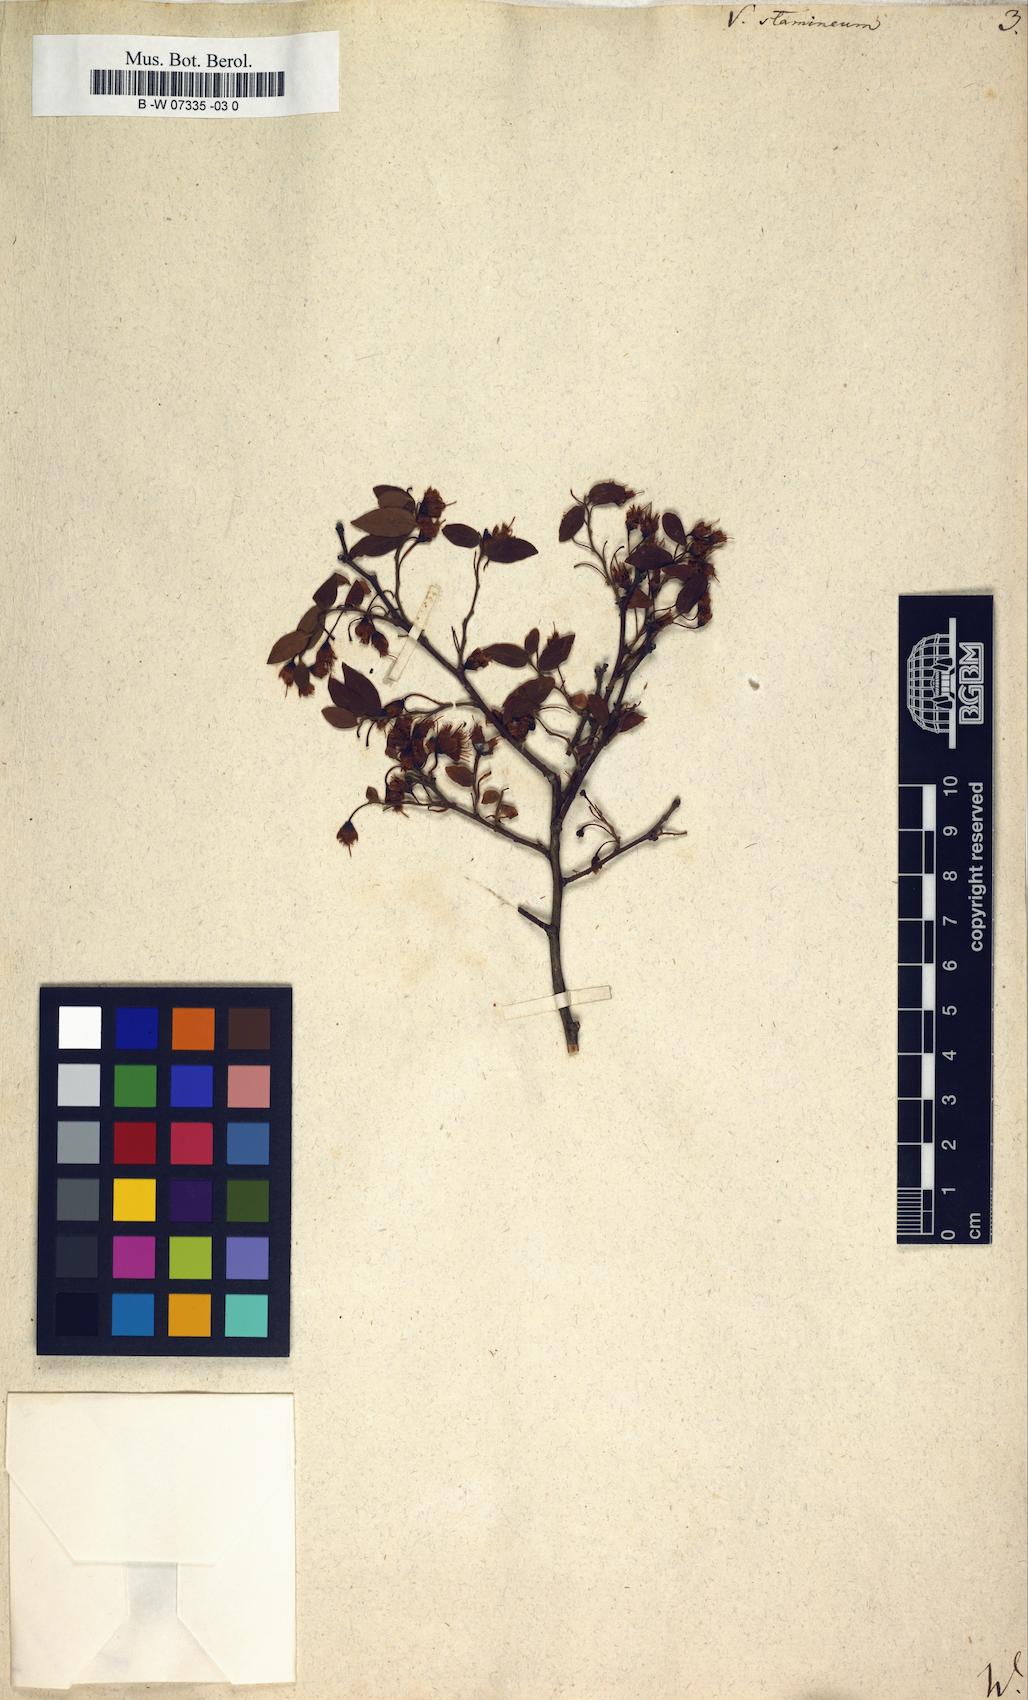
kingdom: Plantae
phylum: Tracheophyta
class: Magnoliopsida
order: Ericales
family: Ericaceae
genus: Vaccinium
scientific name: Vaccinium stamineum
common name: Deerberry
